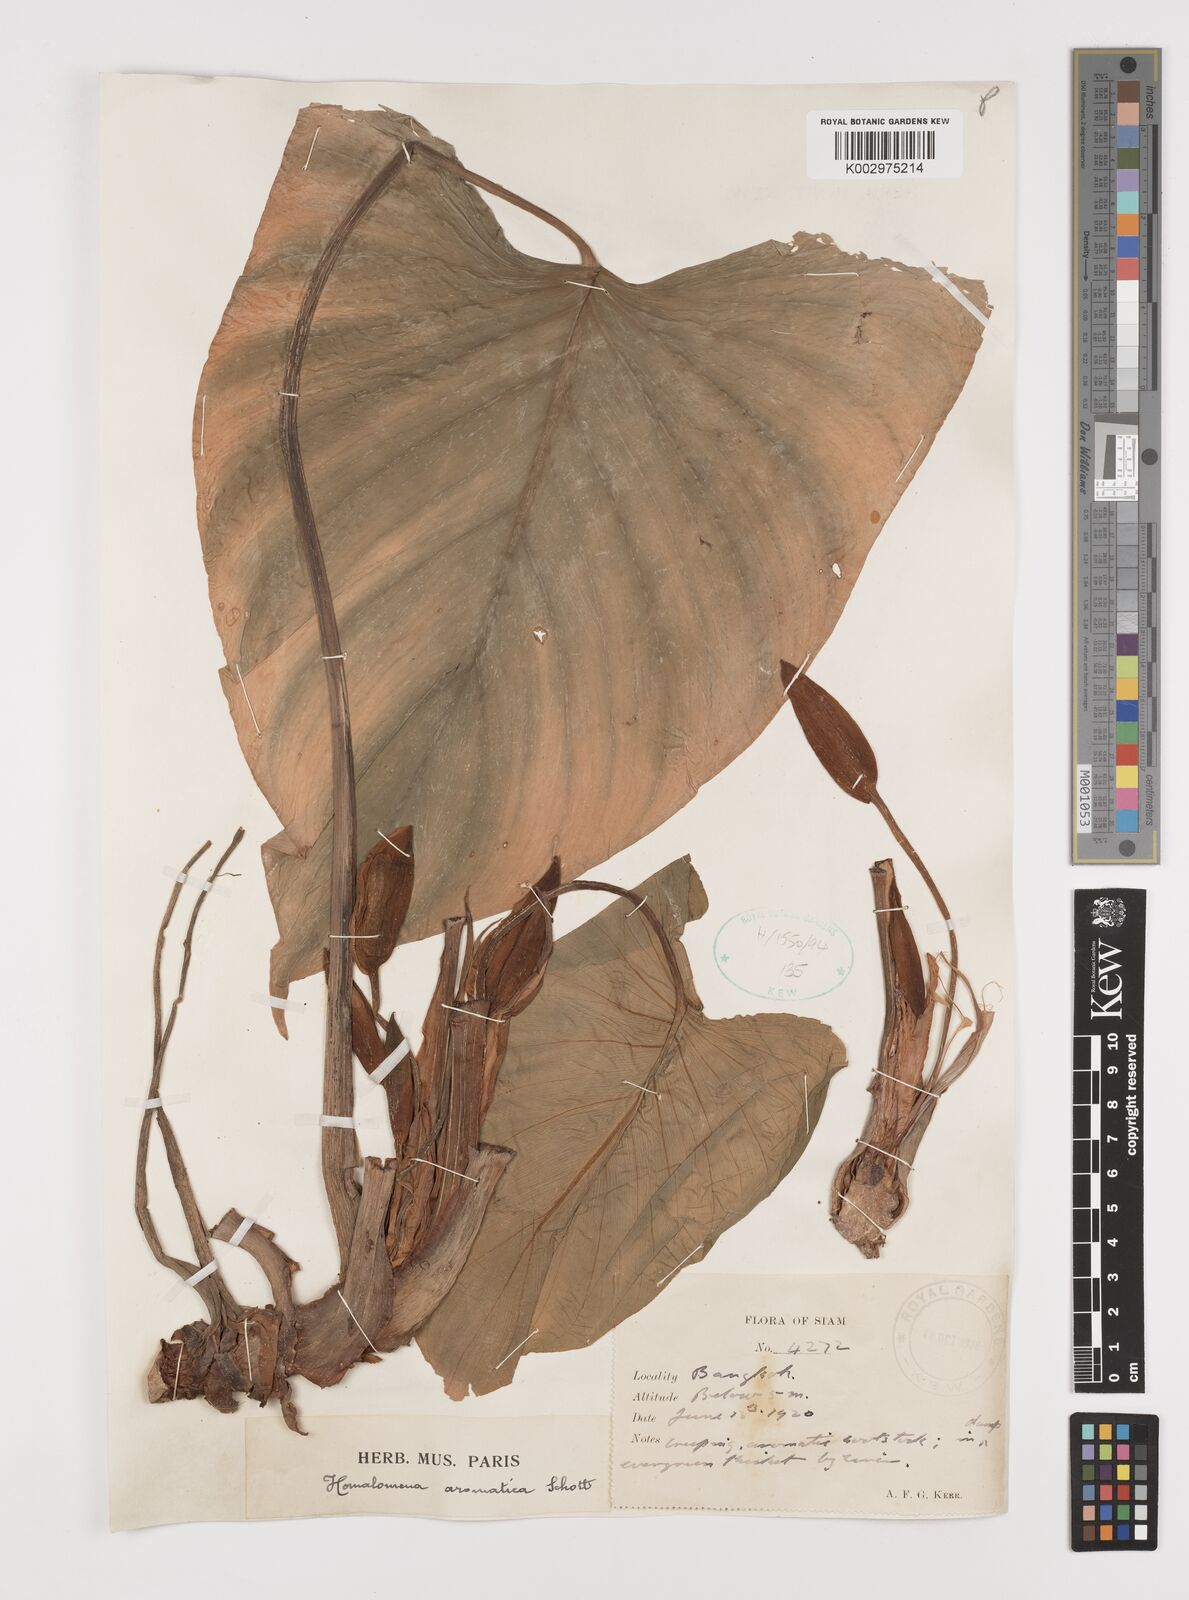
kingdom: Plantae
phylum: Tracheophyta
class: Liliopsida
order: Alismatales
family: Araceae
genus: Homalomena
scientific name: Homalomena aromatica
